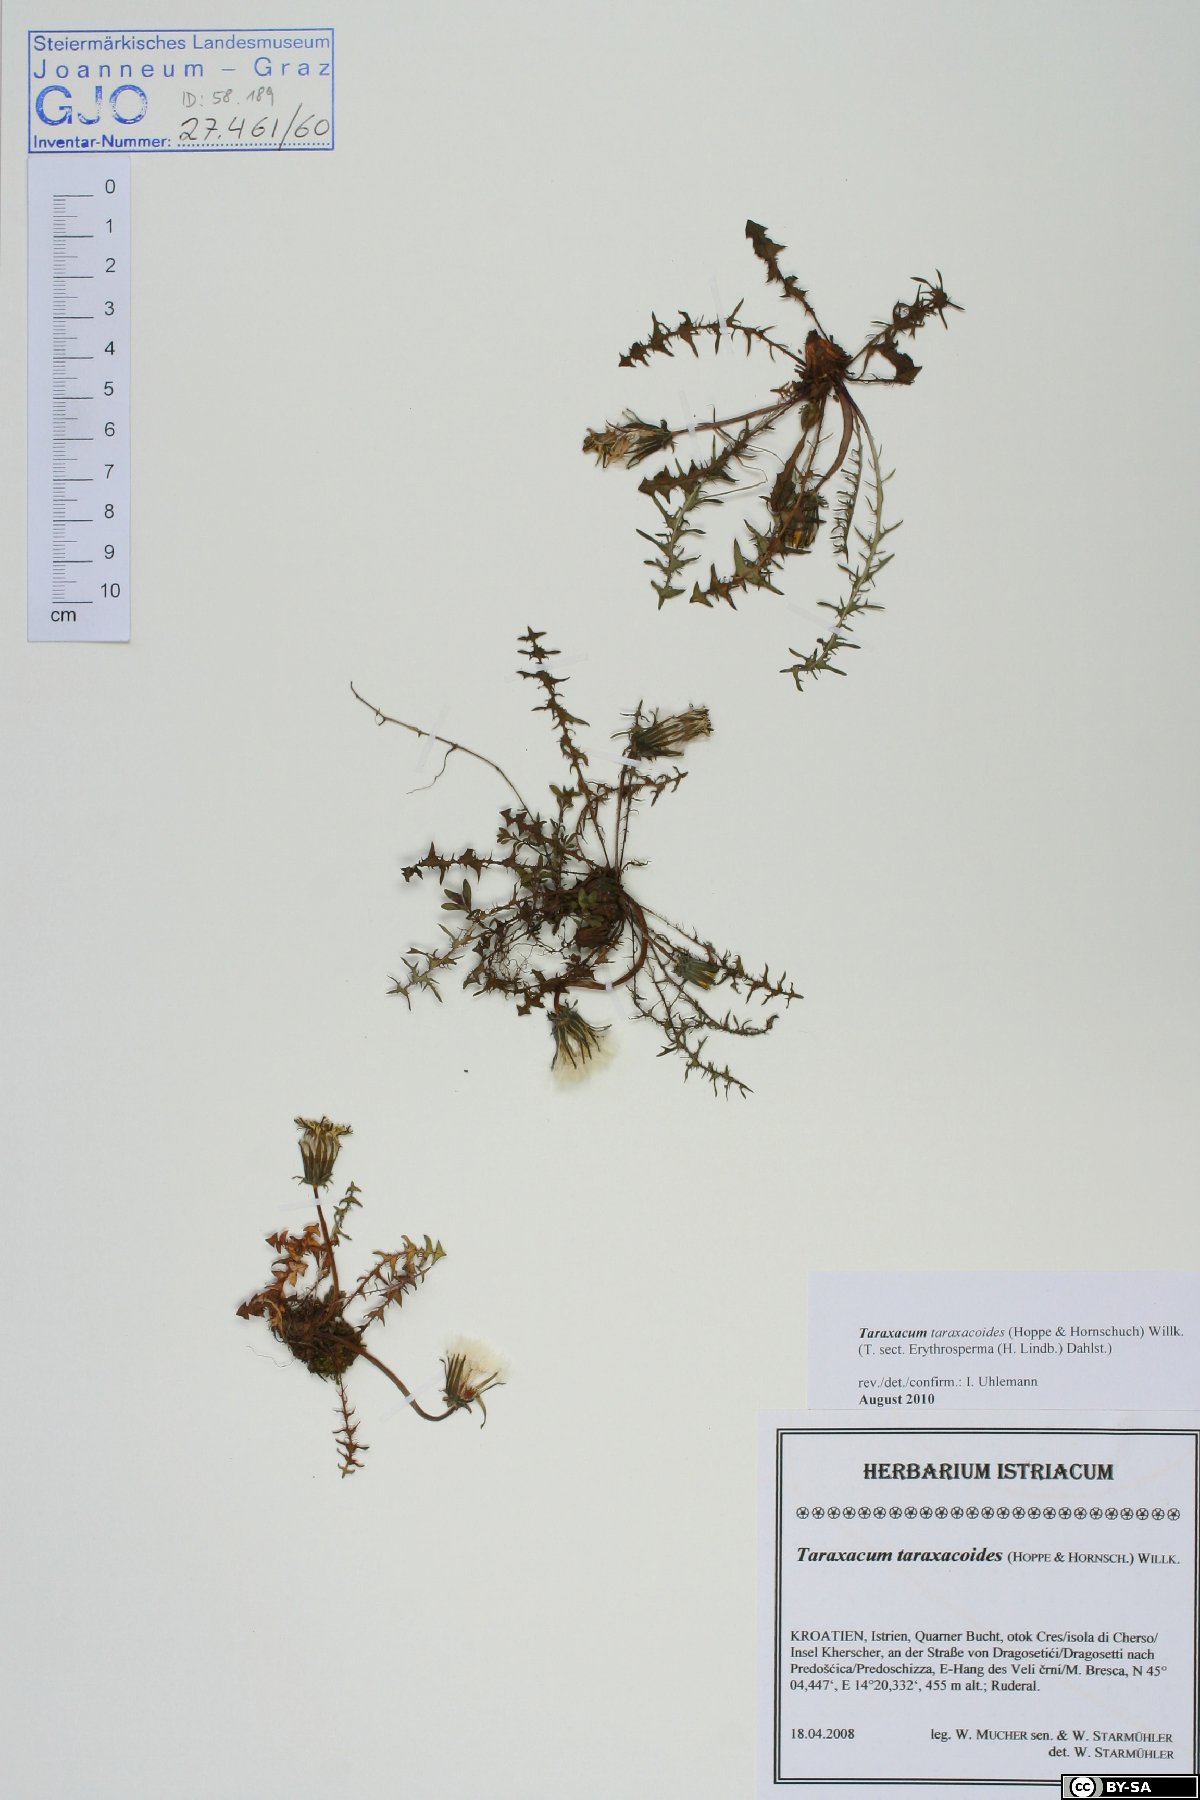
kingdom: Plantae
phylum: Tracheophyta
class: Magnoliopsida
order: Asterales
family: Asteraceae
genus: Taraxacum
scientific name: Taraxacum taraxacoides
